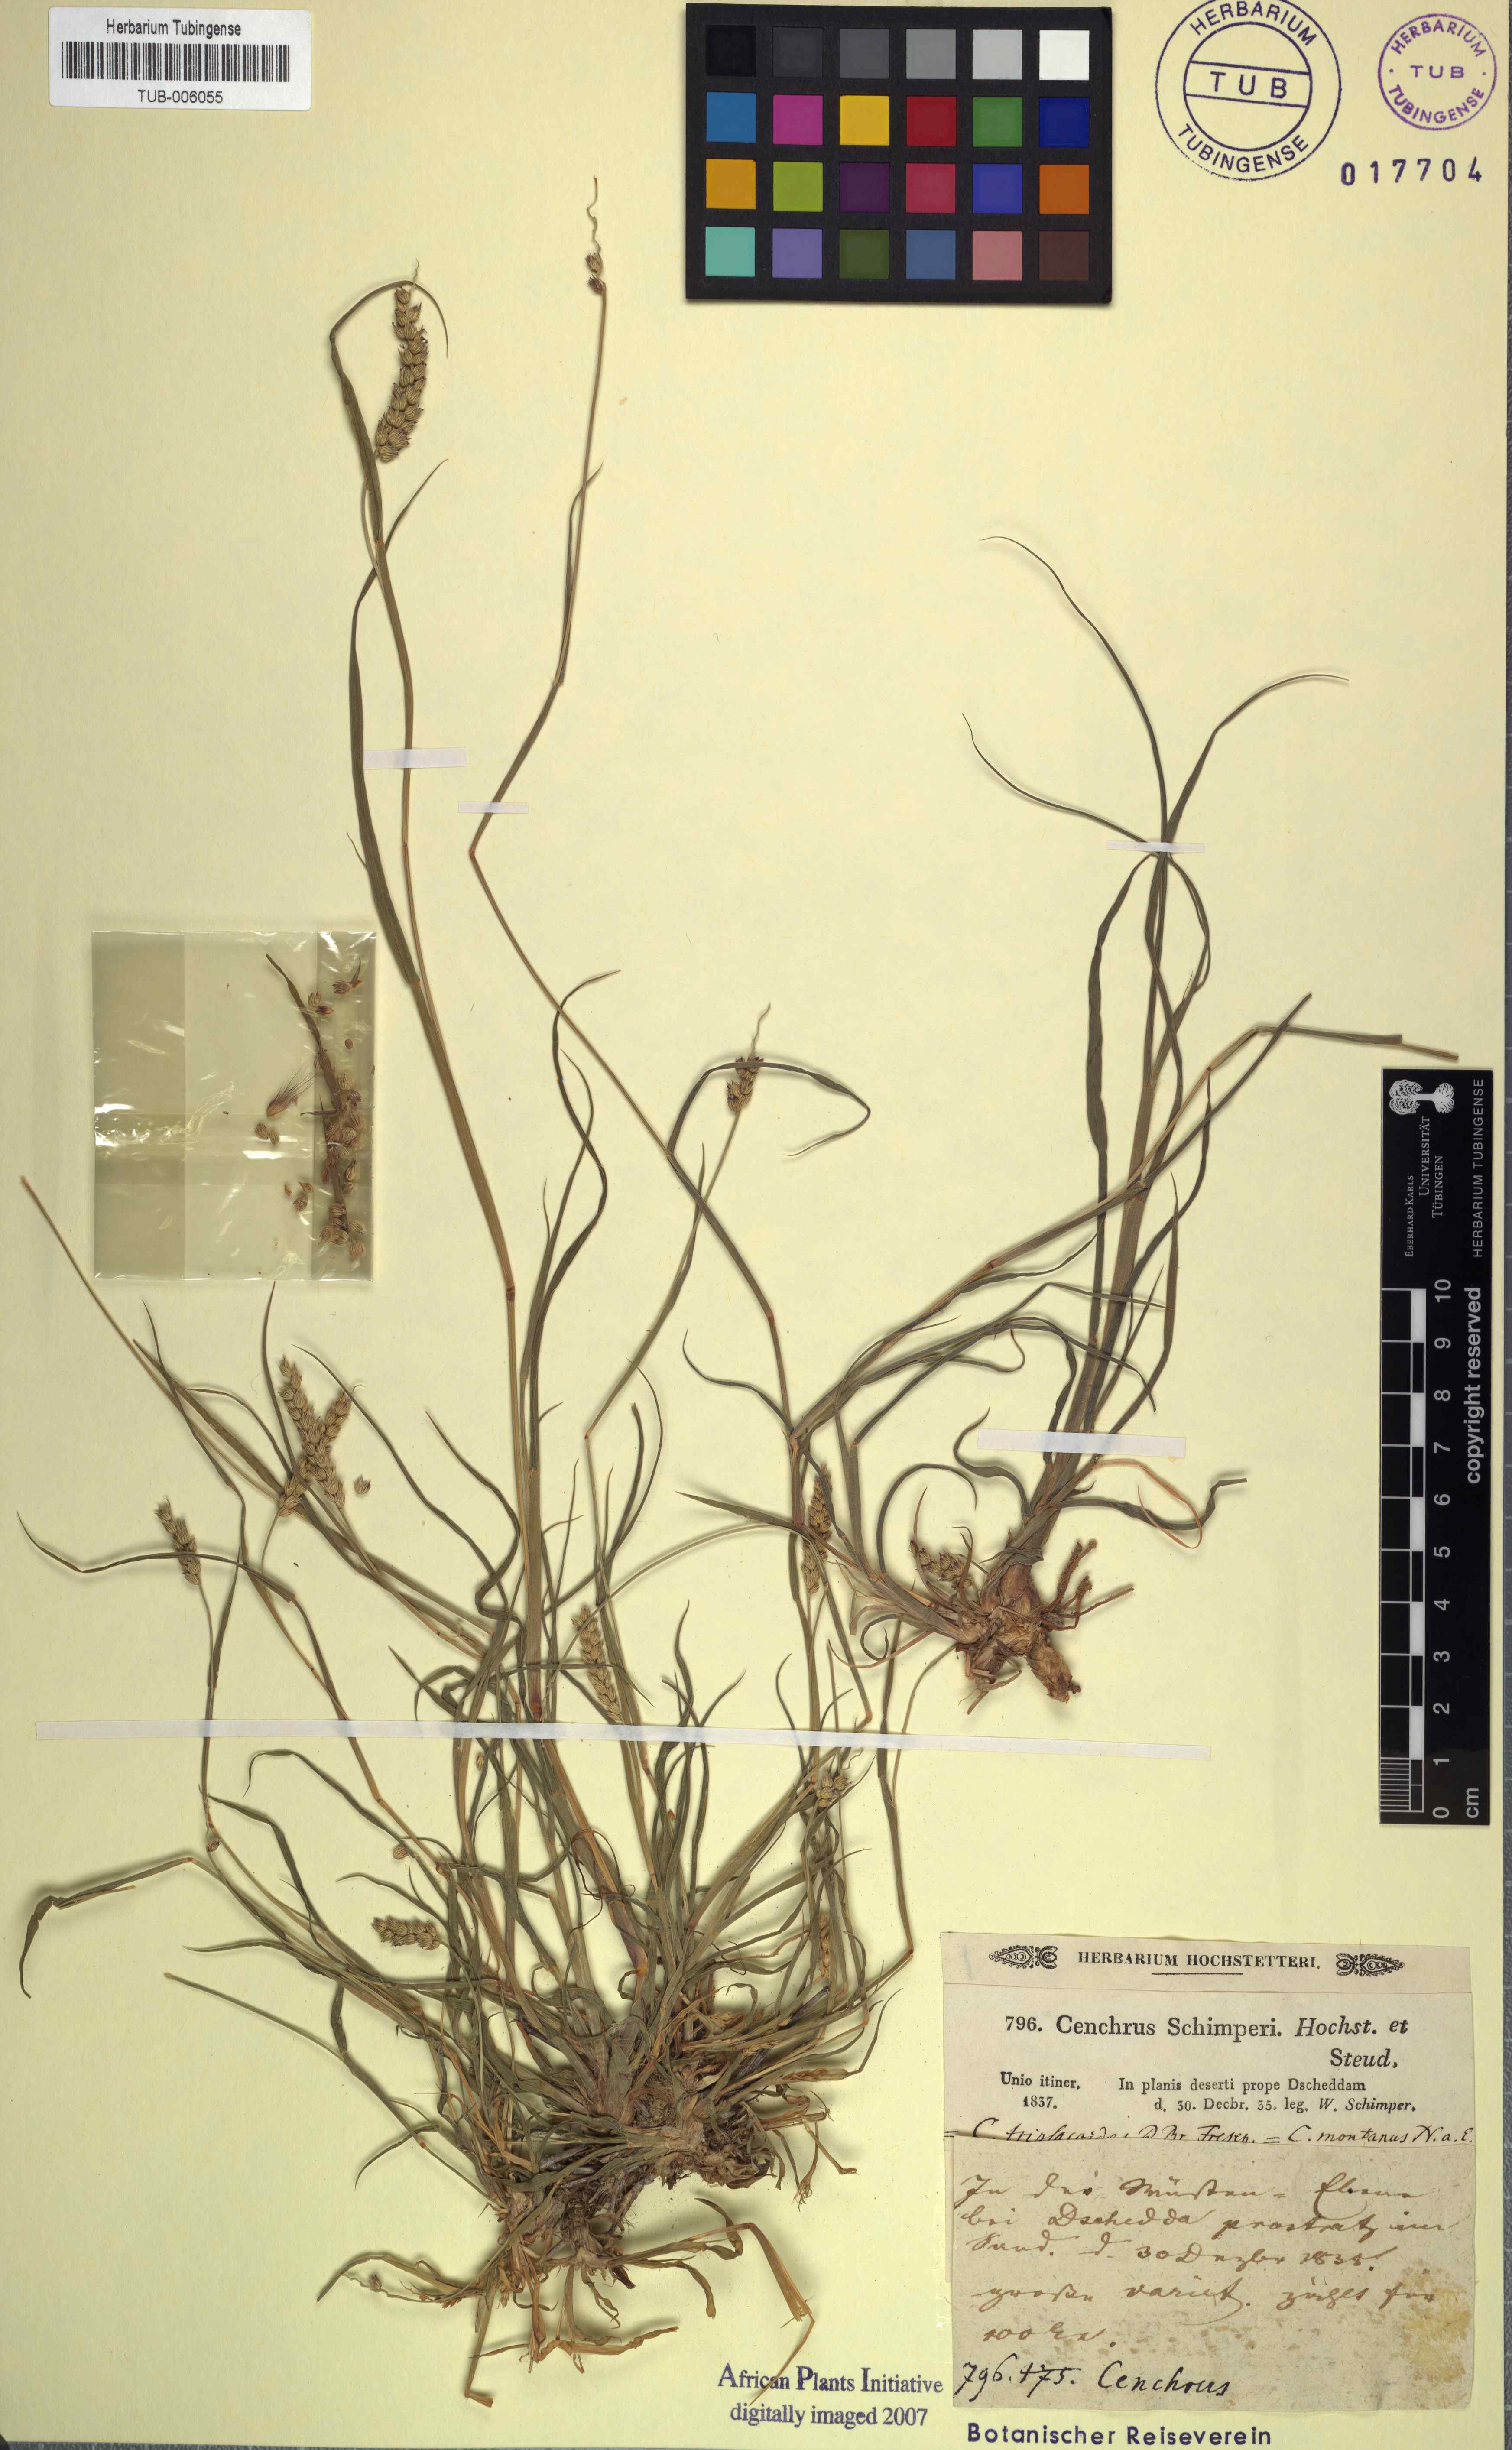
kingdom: Plantae
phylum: Tracheophyta
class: Liliopsida
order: Poales
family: Poaceae
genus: Cenchrus
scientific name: Cenchrus setigerus
